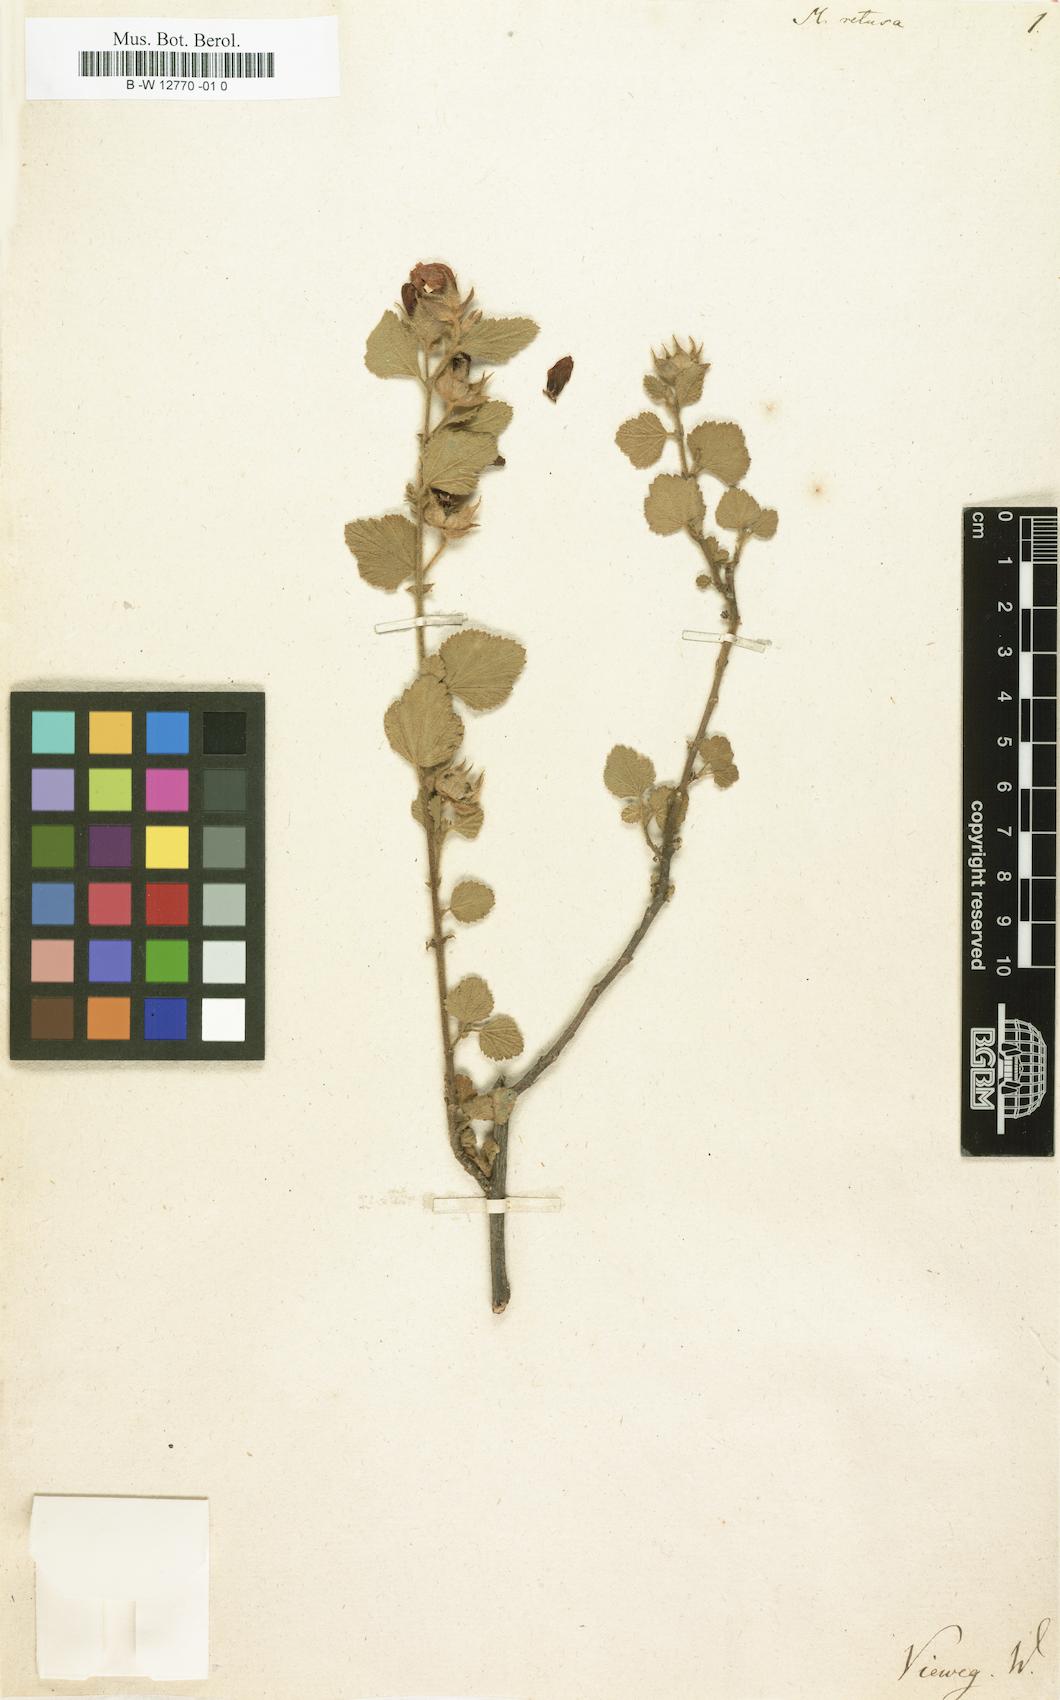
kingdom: Plantae
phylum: Tracheophyta
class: Magnoliopsida
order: Malvales
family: Malvaceae
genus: Malva
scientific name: Malva retusa
